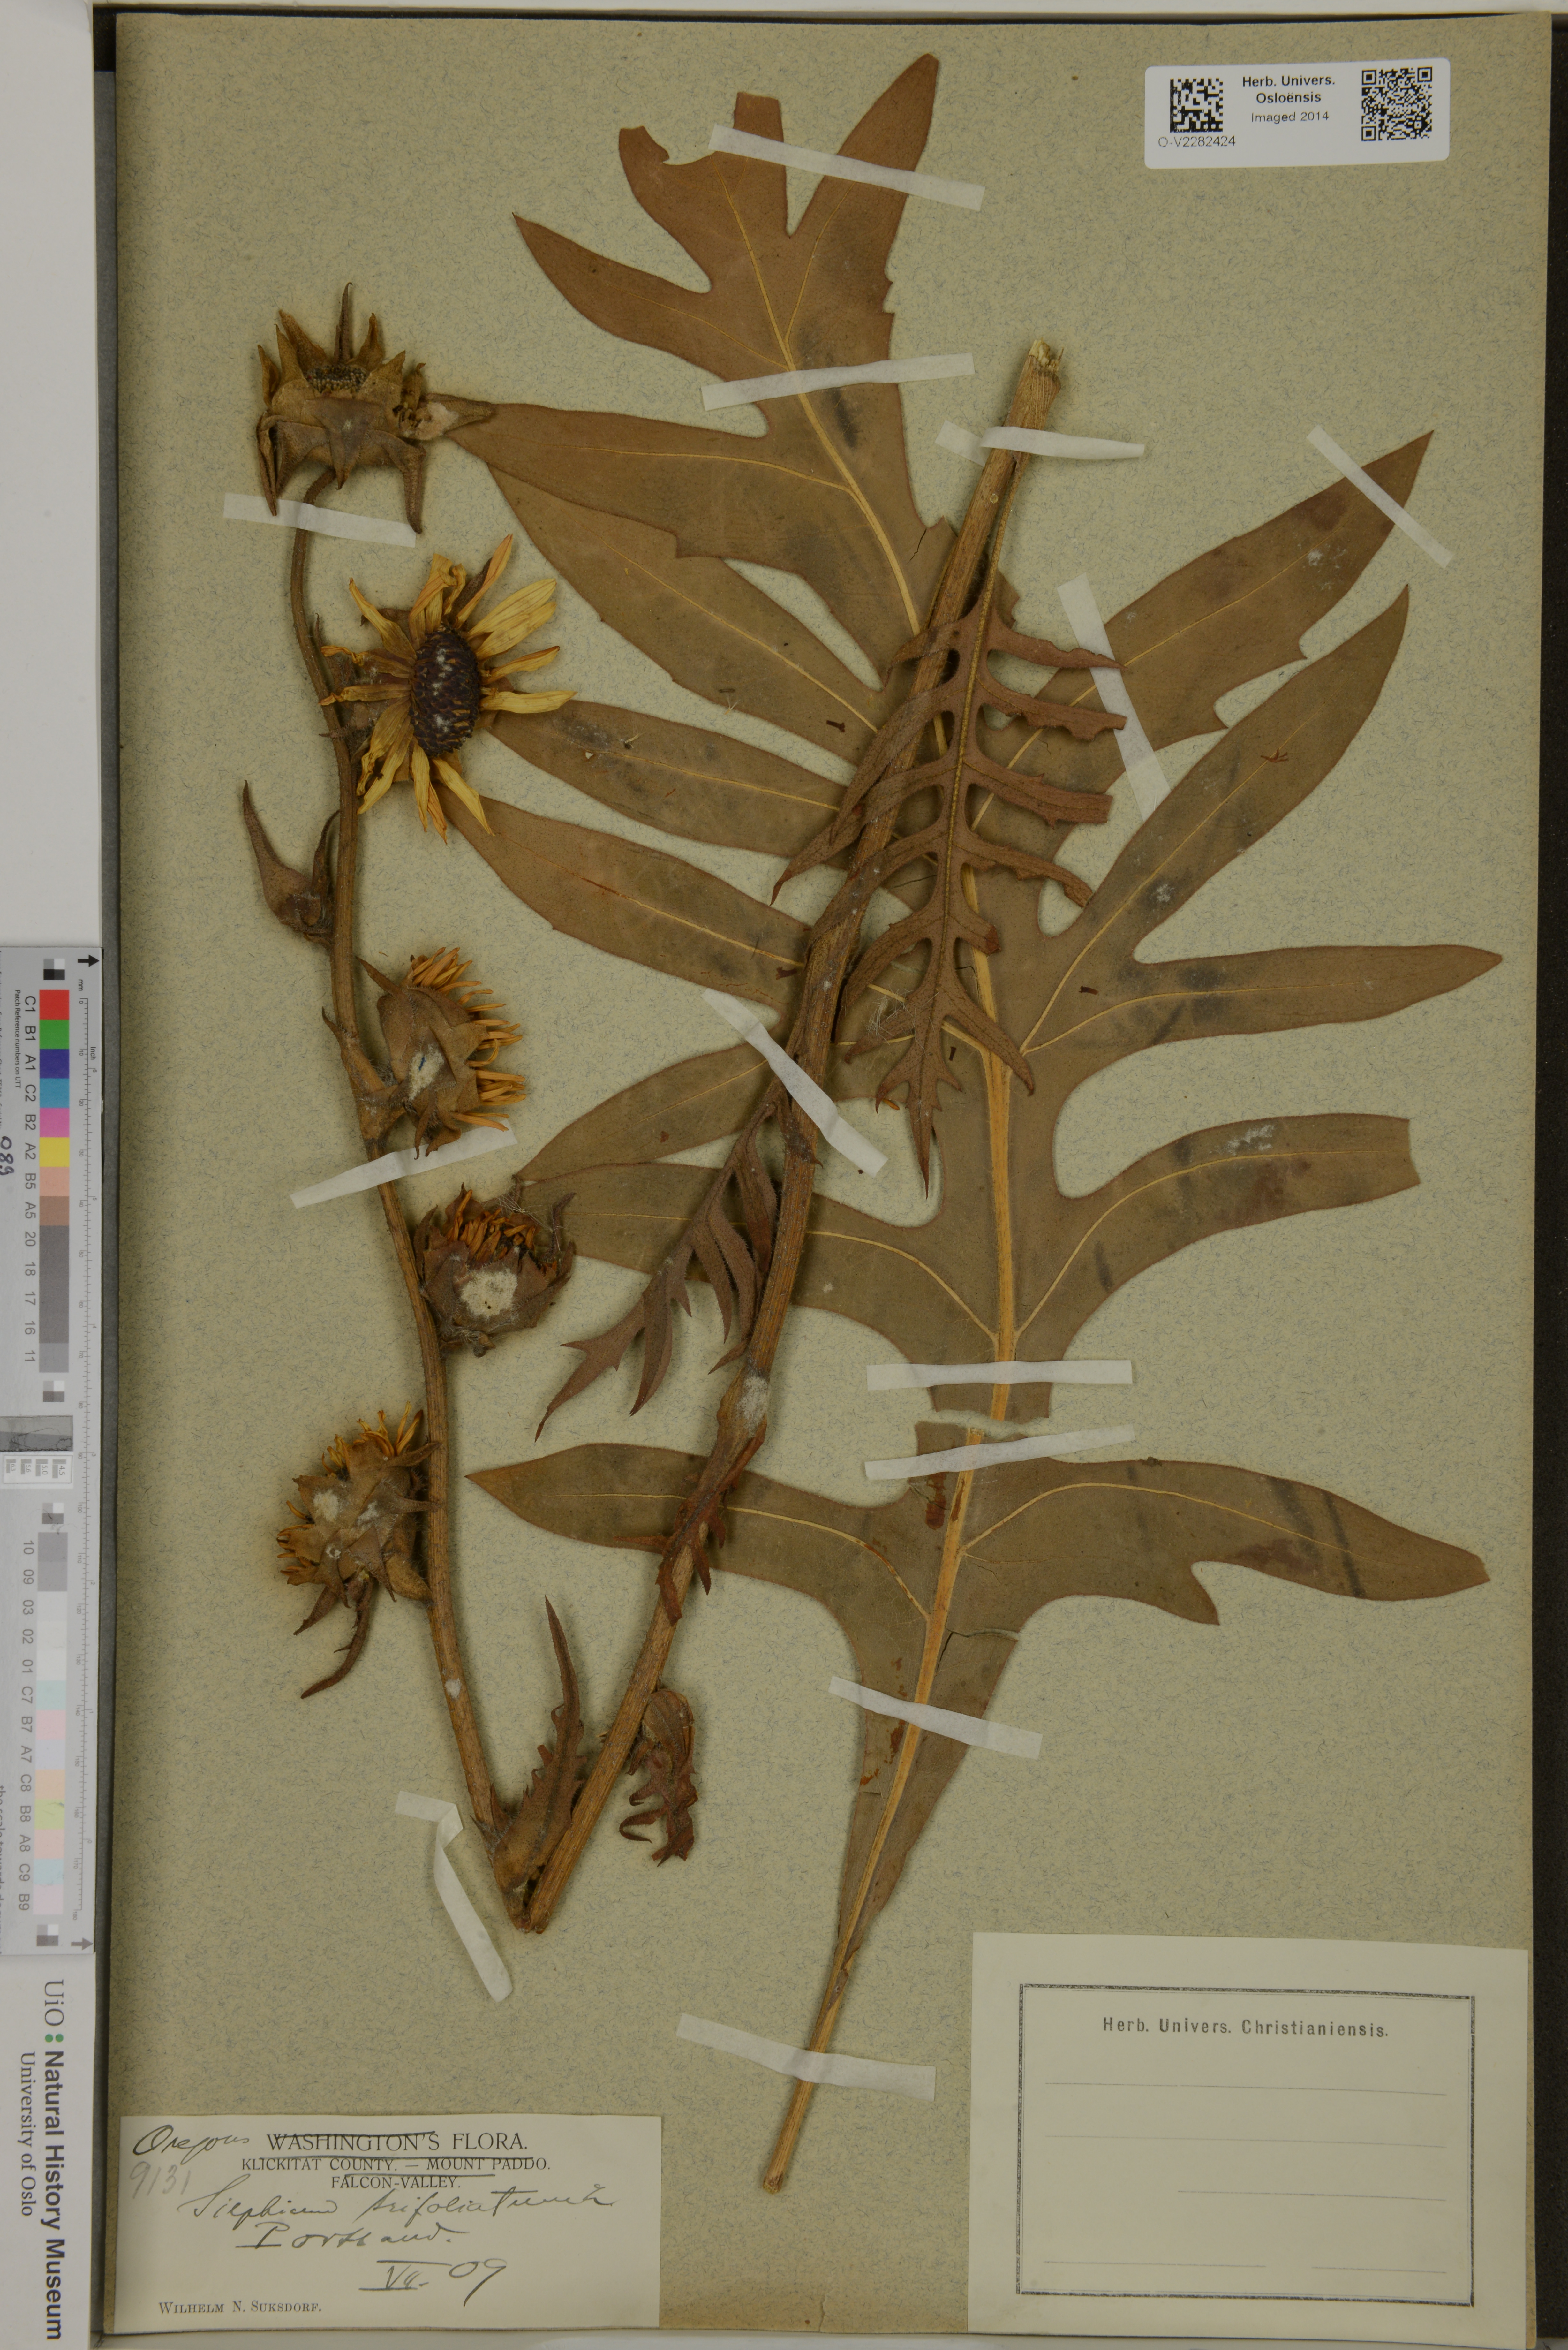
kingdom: Plantae
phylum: Tracheophyta
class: Magnoliopsida
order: Asterales
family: Asteraceae
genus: Silphium
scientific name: Silphium asteriscus
